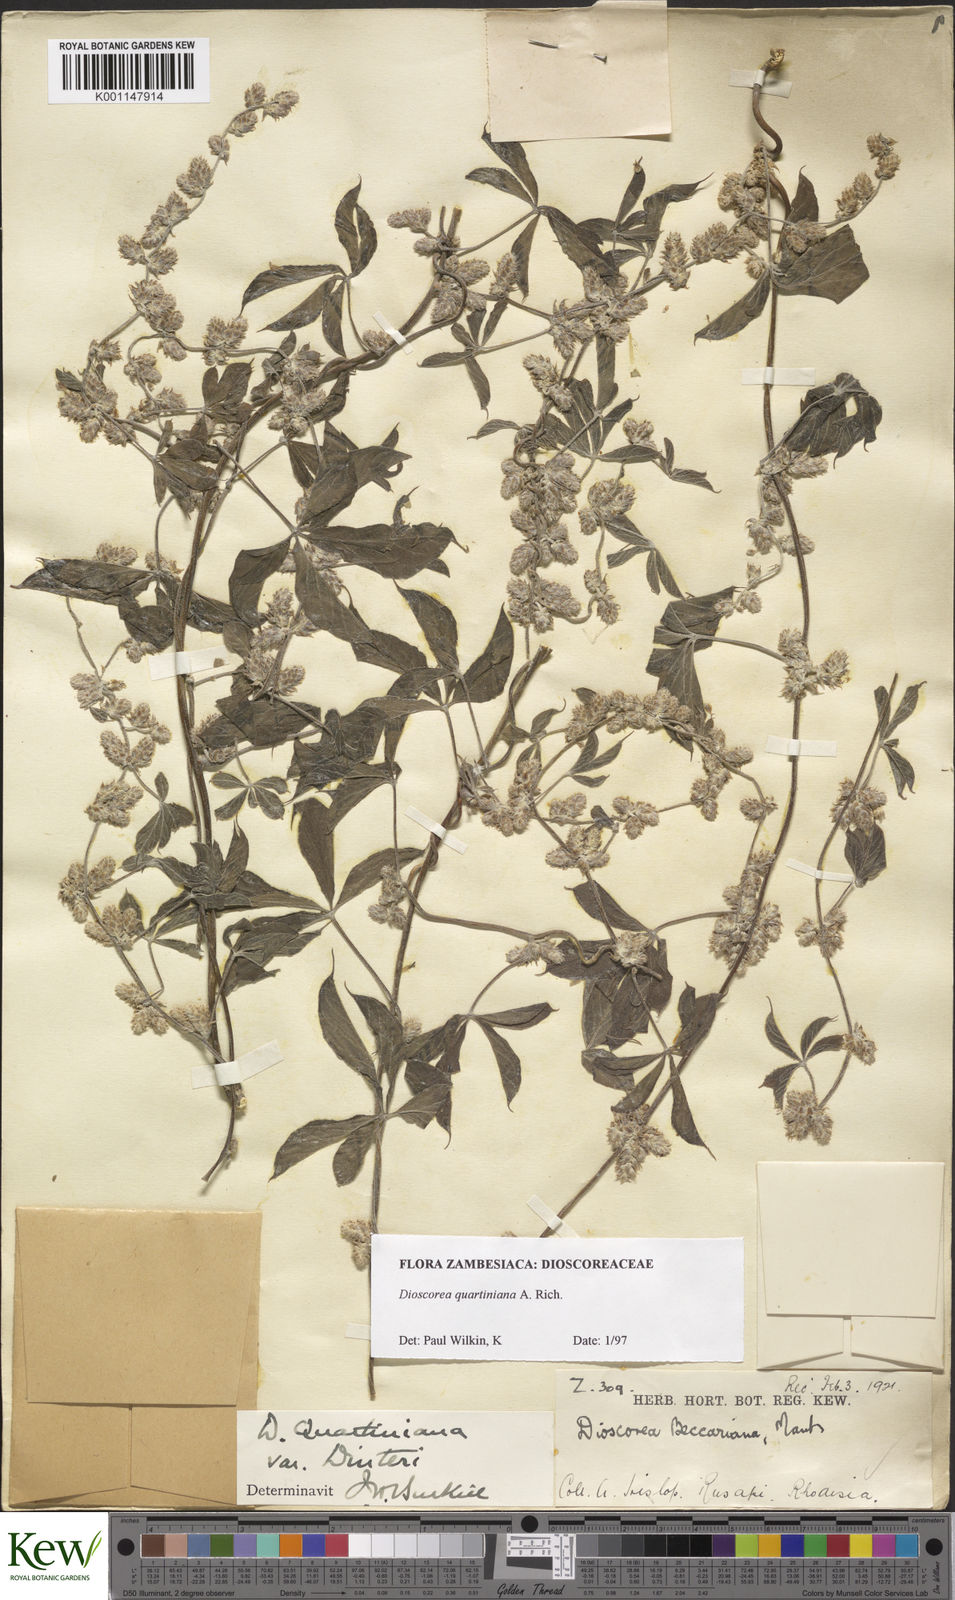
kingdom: Plantae
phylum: Tracheophyta
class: Liliopsida
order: Dioscoreales
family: Dioscoreaceae
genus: Dioscorea
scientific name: Dioscorea
